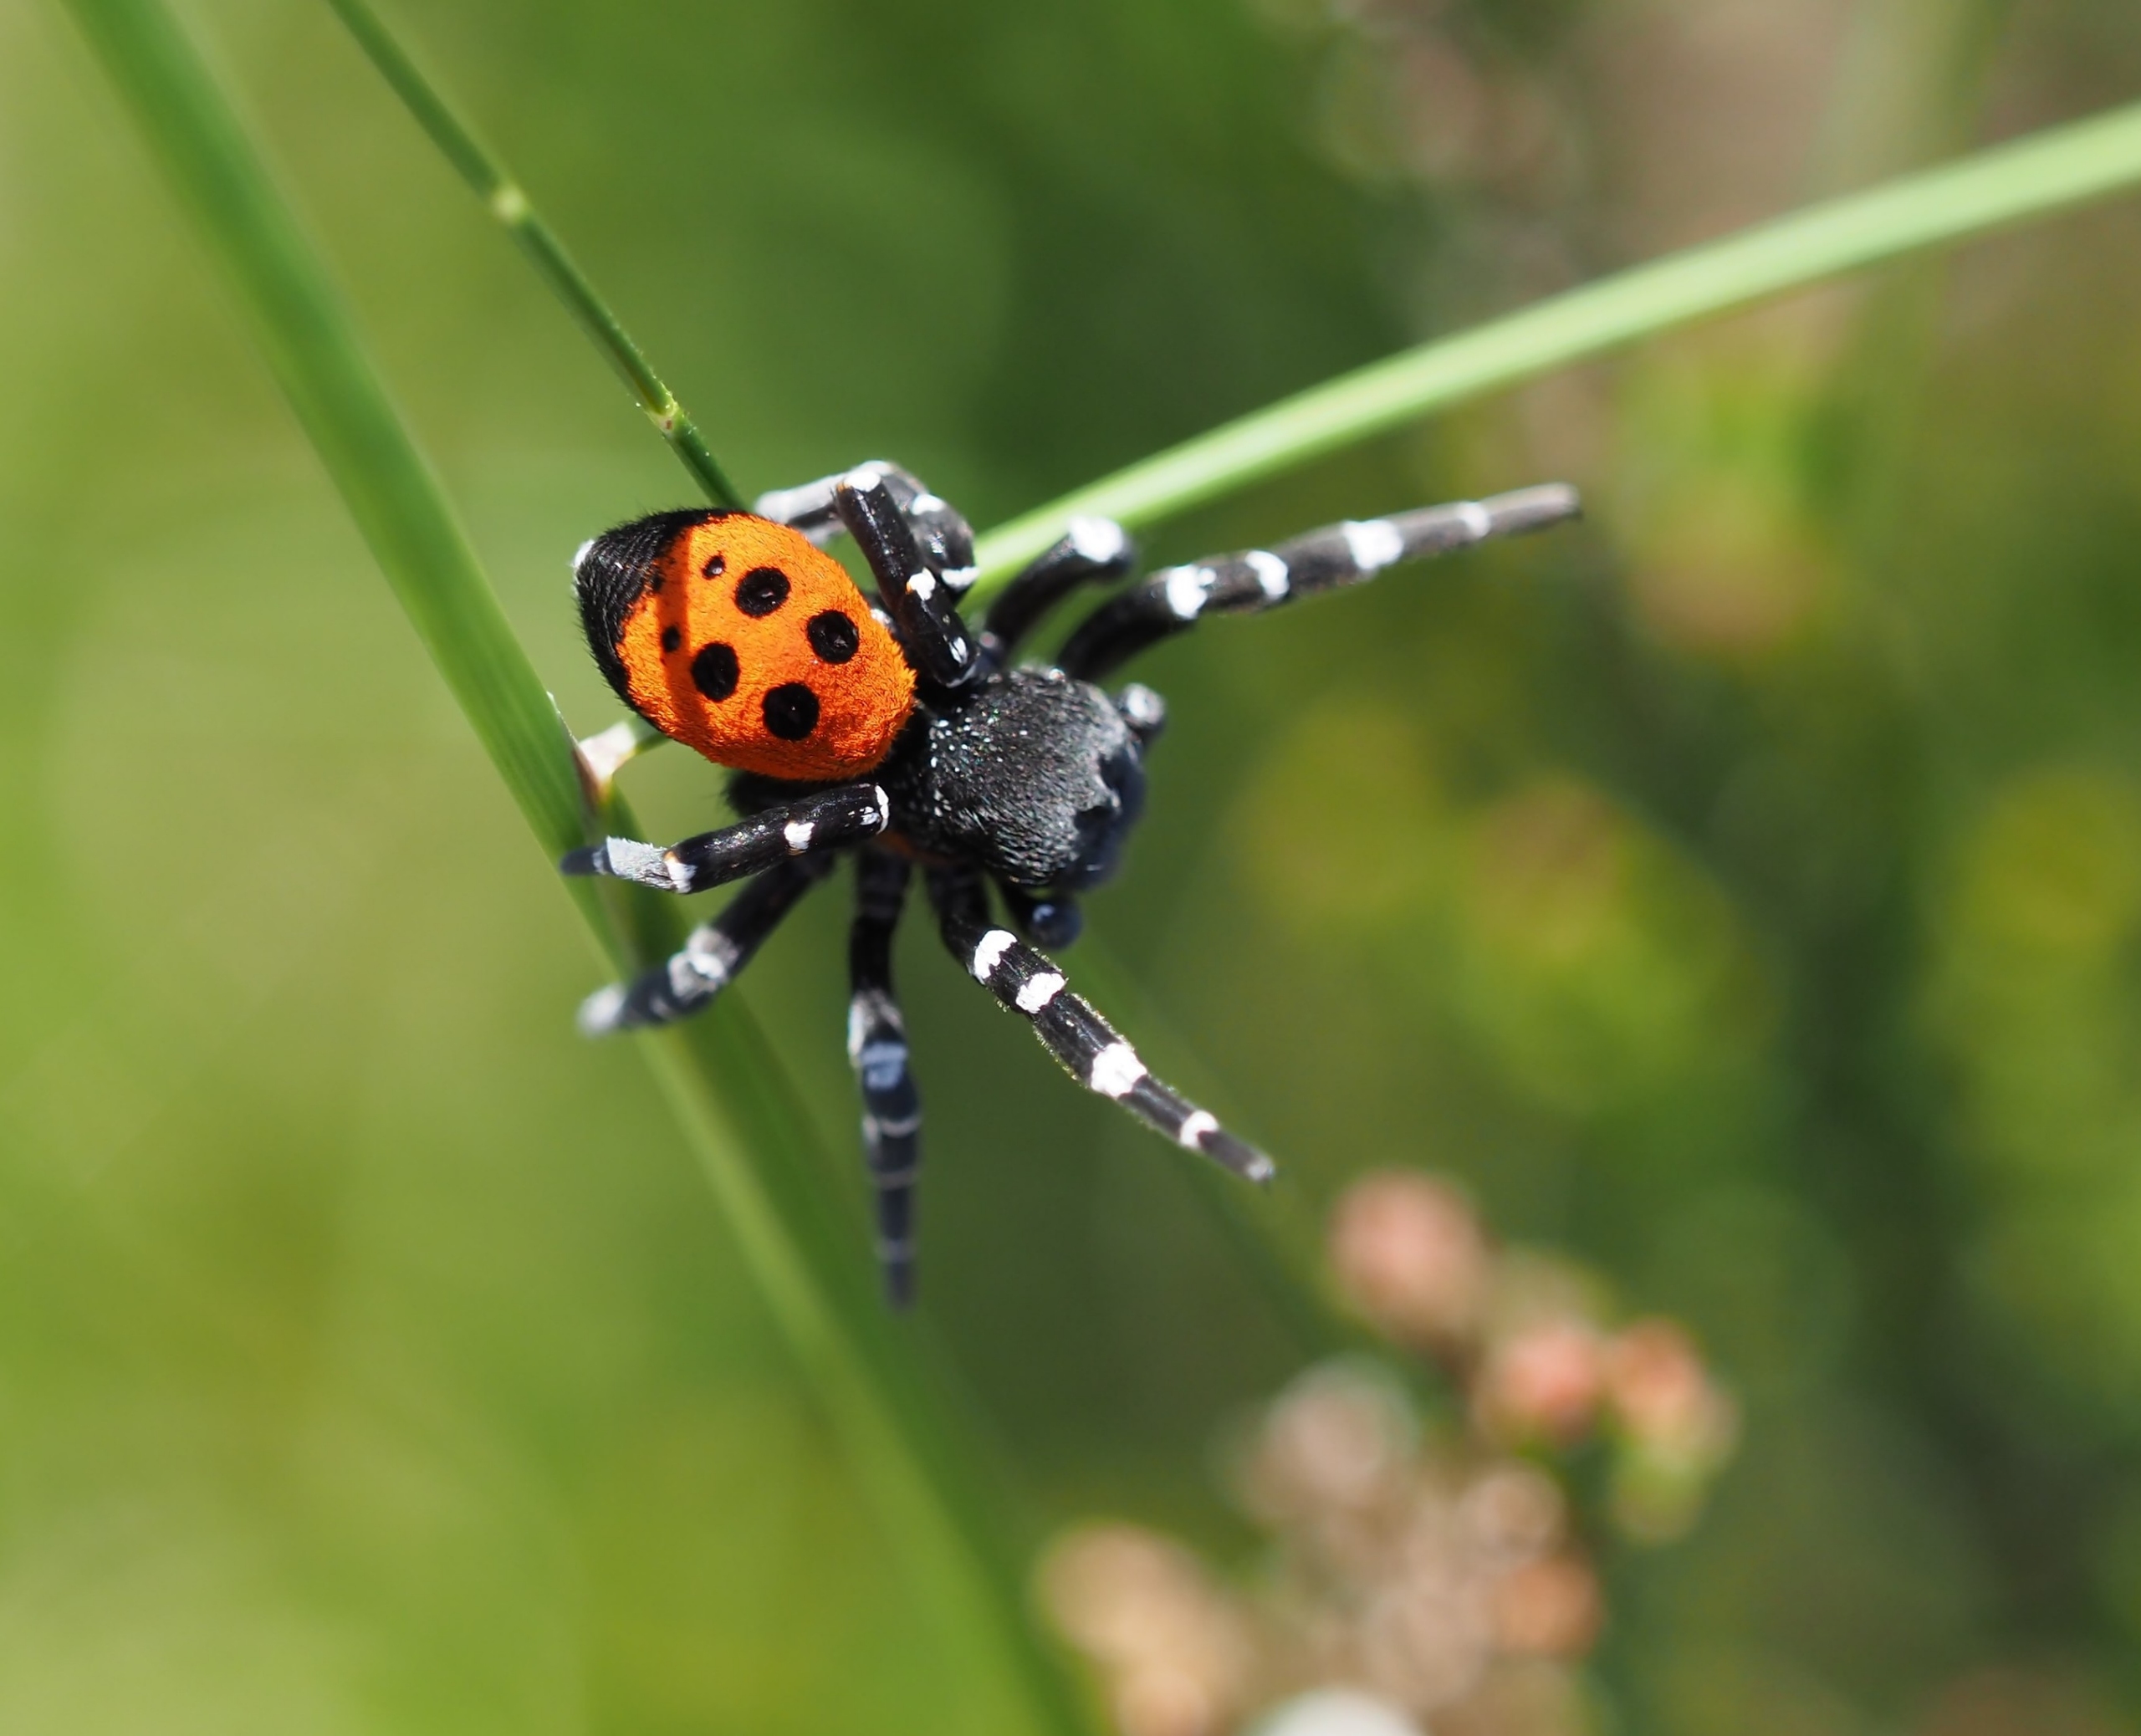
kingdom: Animalia
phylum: Arthropoda
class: Arachnida
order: Araneae
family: Eresidae
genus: Eresus
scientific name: Eresus sandaliatus
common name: Mariehøneedderkop
